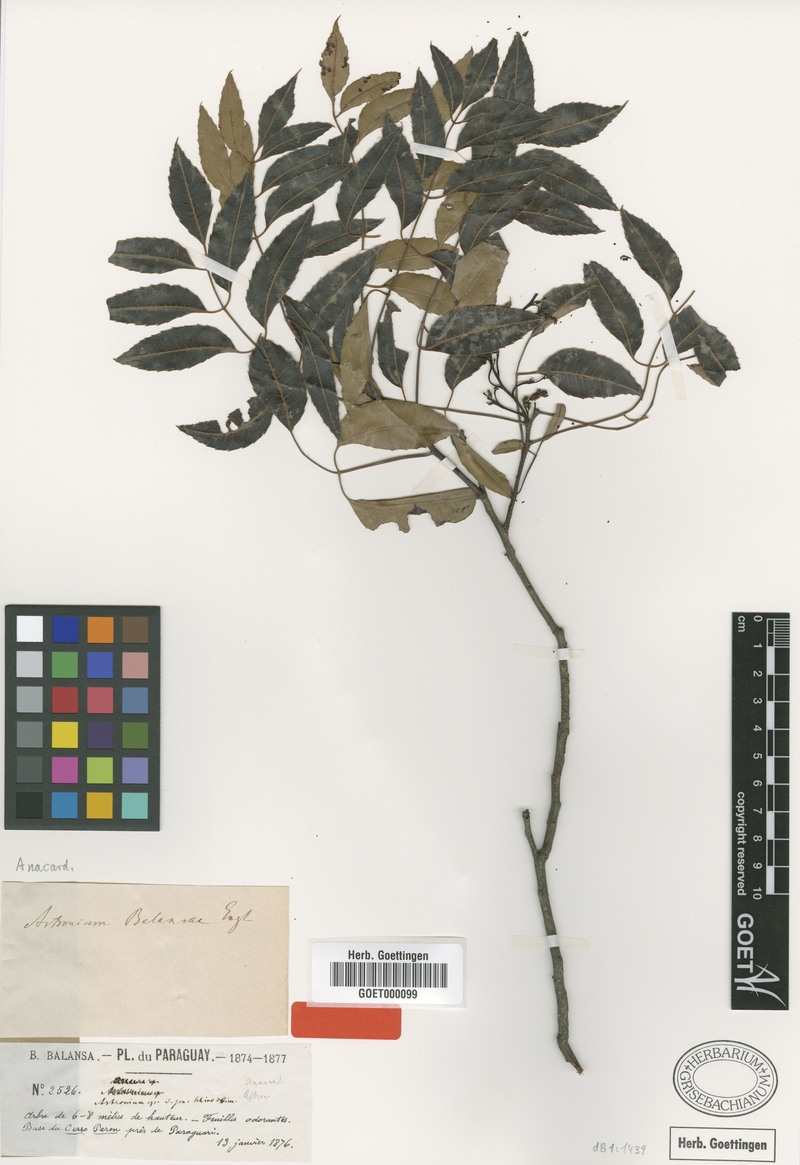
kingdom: Plantae
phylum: Tracheophyta
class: Magnoliopsida
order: Sapindales
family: Anacardiaceae
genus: Myracrodruon
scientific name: Myracrodruon balansae
